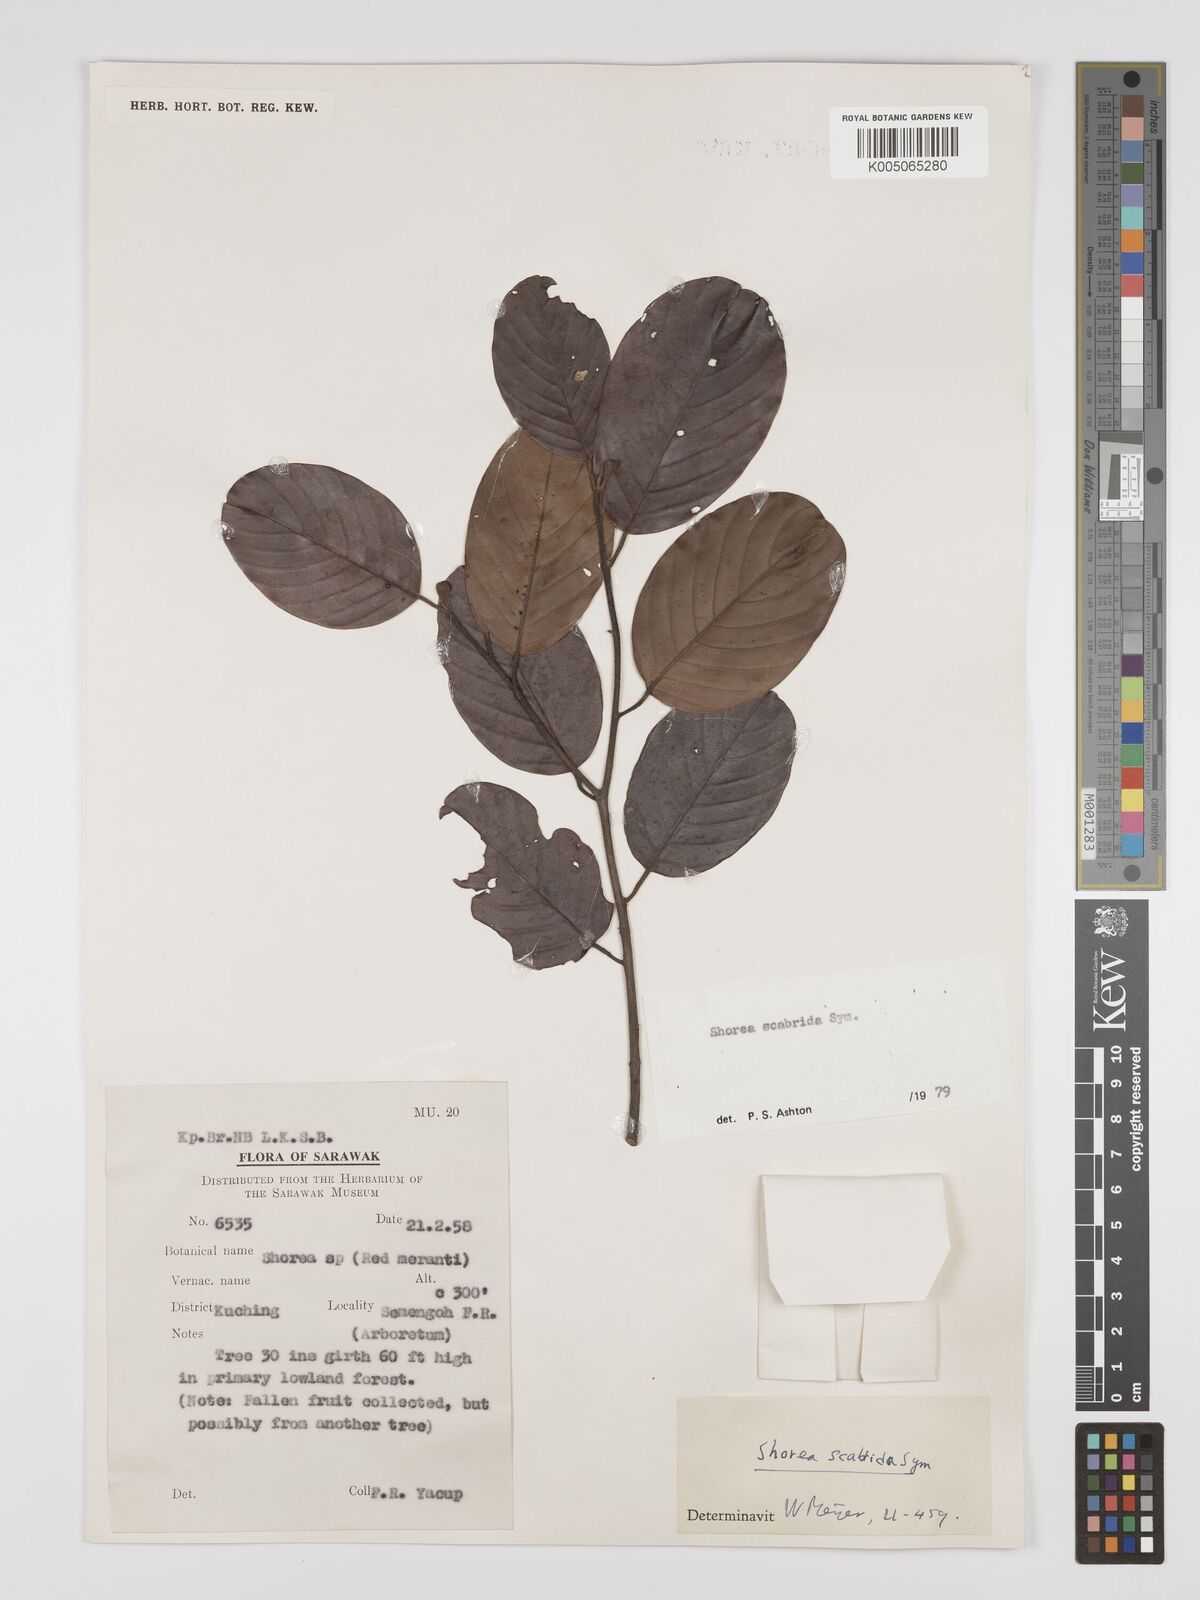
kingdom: Plantae
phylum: Tracheophyta
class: Magnoliopsida
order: Malvales
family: Dipterocarpaceae
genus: Shorea
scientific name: Shorea scabrida
